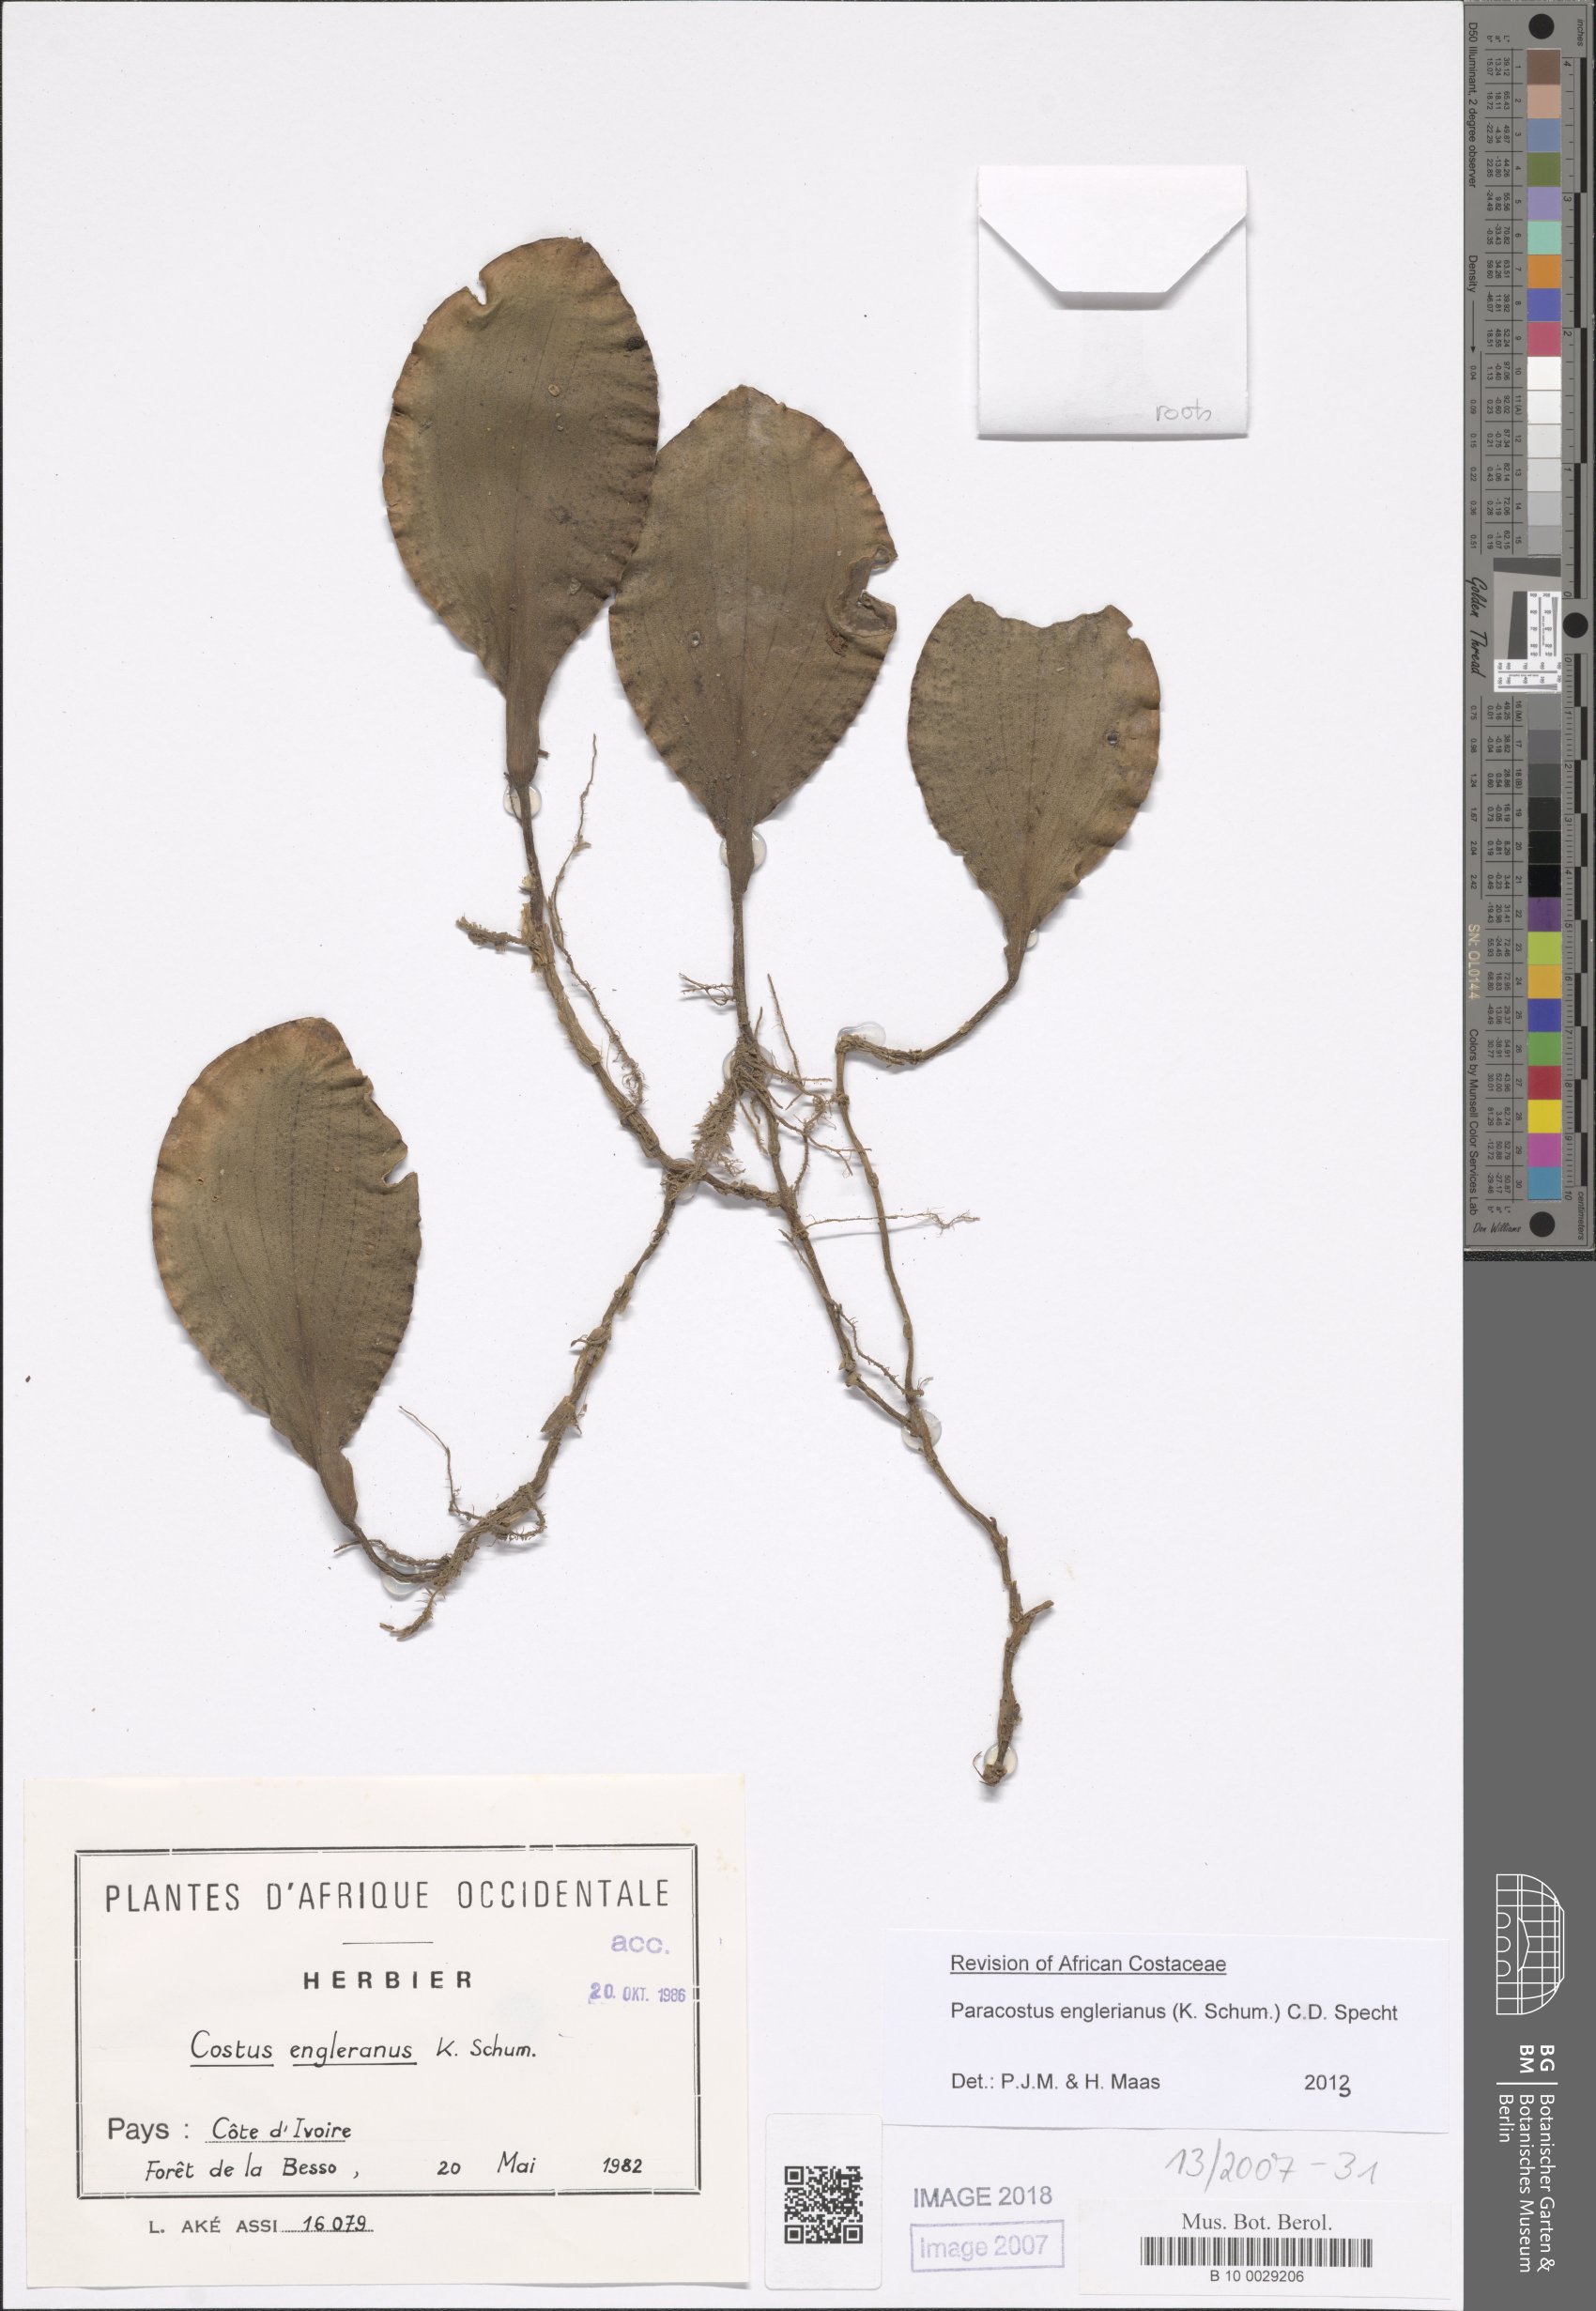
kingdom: Plantae
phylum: Tracheophyta
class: Liliopsida
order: Zingiberales
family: Costaceae
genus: Paracostus
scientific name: Paracostus englerianus
